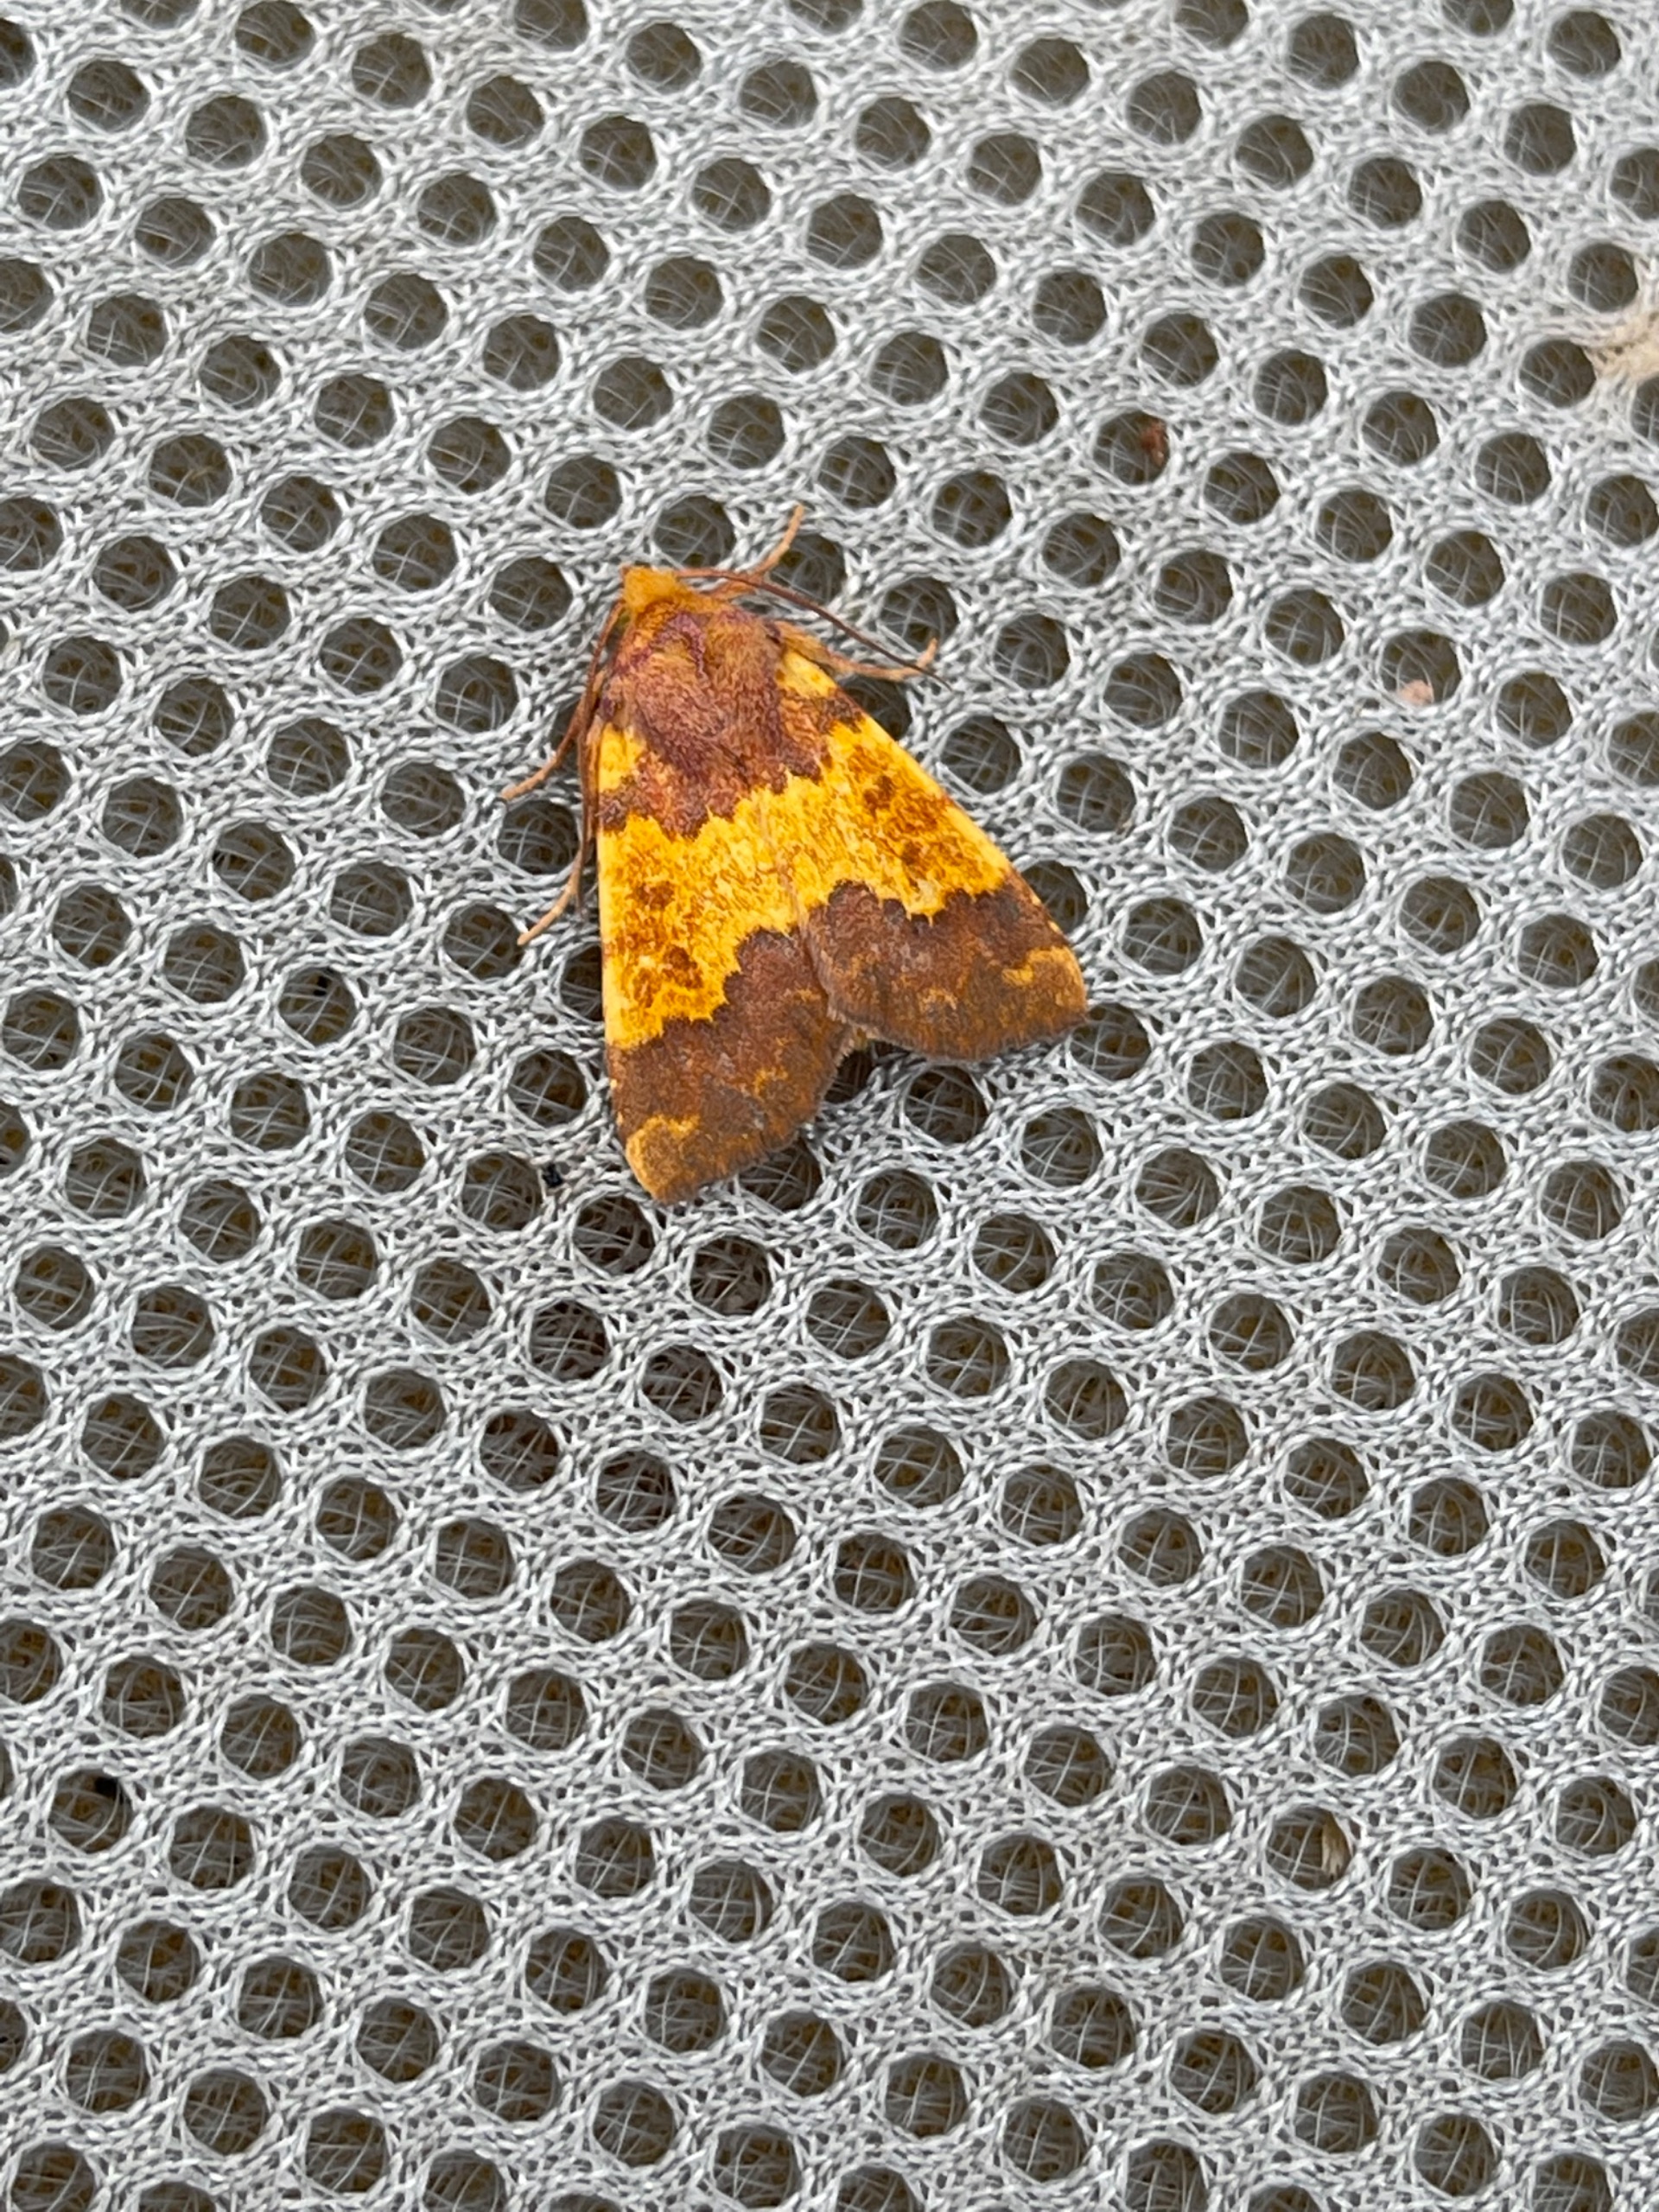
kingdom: Animalia
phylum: Arthropoda
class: Insecta
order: Lepidoptera
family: Noctuidae
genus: Tiliacea
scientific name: Tiliacea aurago
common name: Guldugle
